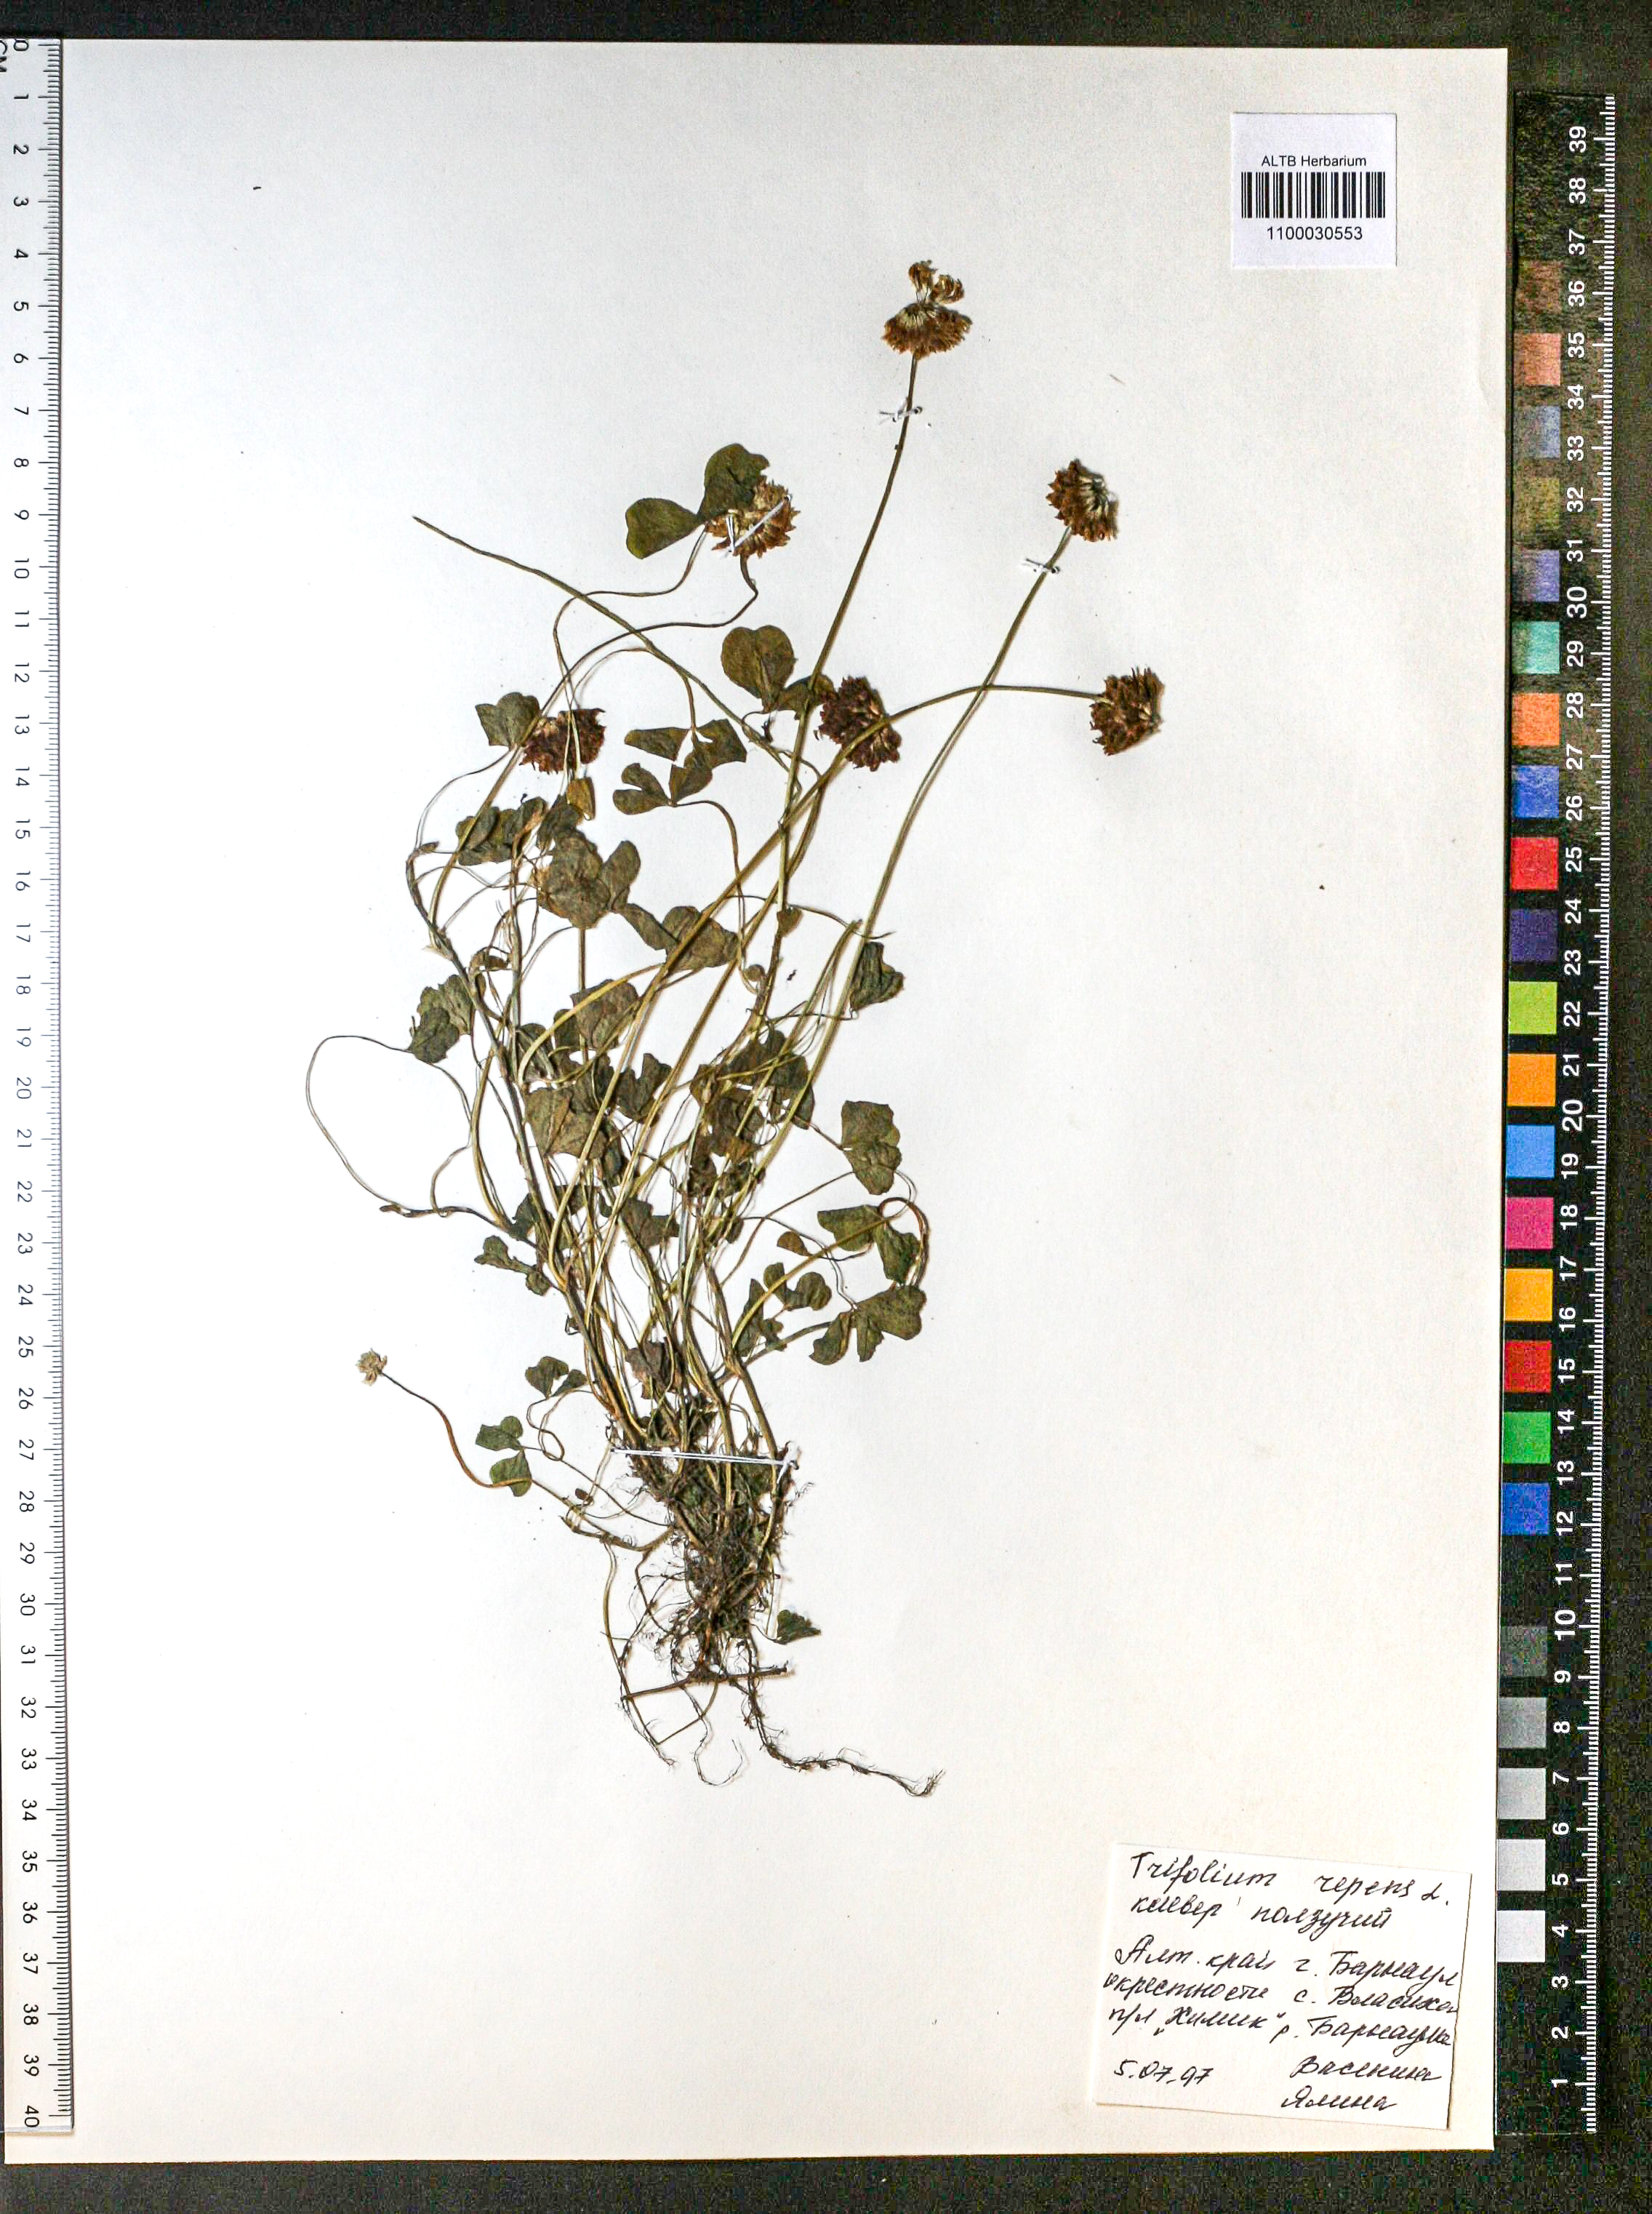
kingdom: Plantae
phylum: Tracheophyta
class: Magnoliopsida
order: Fabales
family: Fabaceae
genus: Trifolium
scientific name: Trifolium repens
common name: White clover
